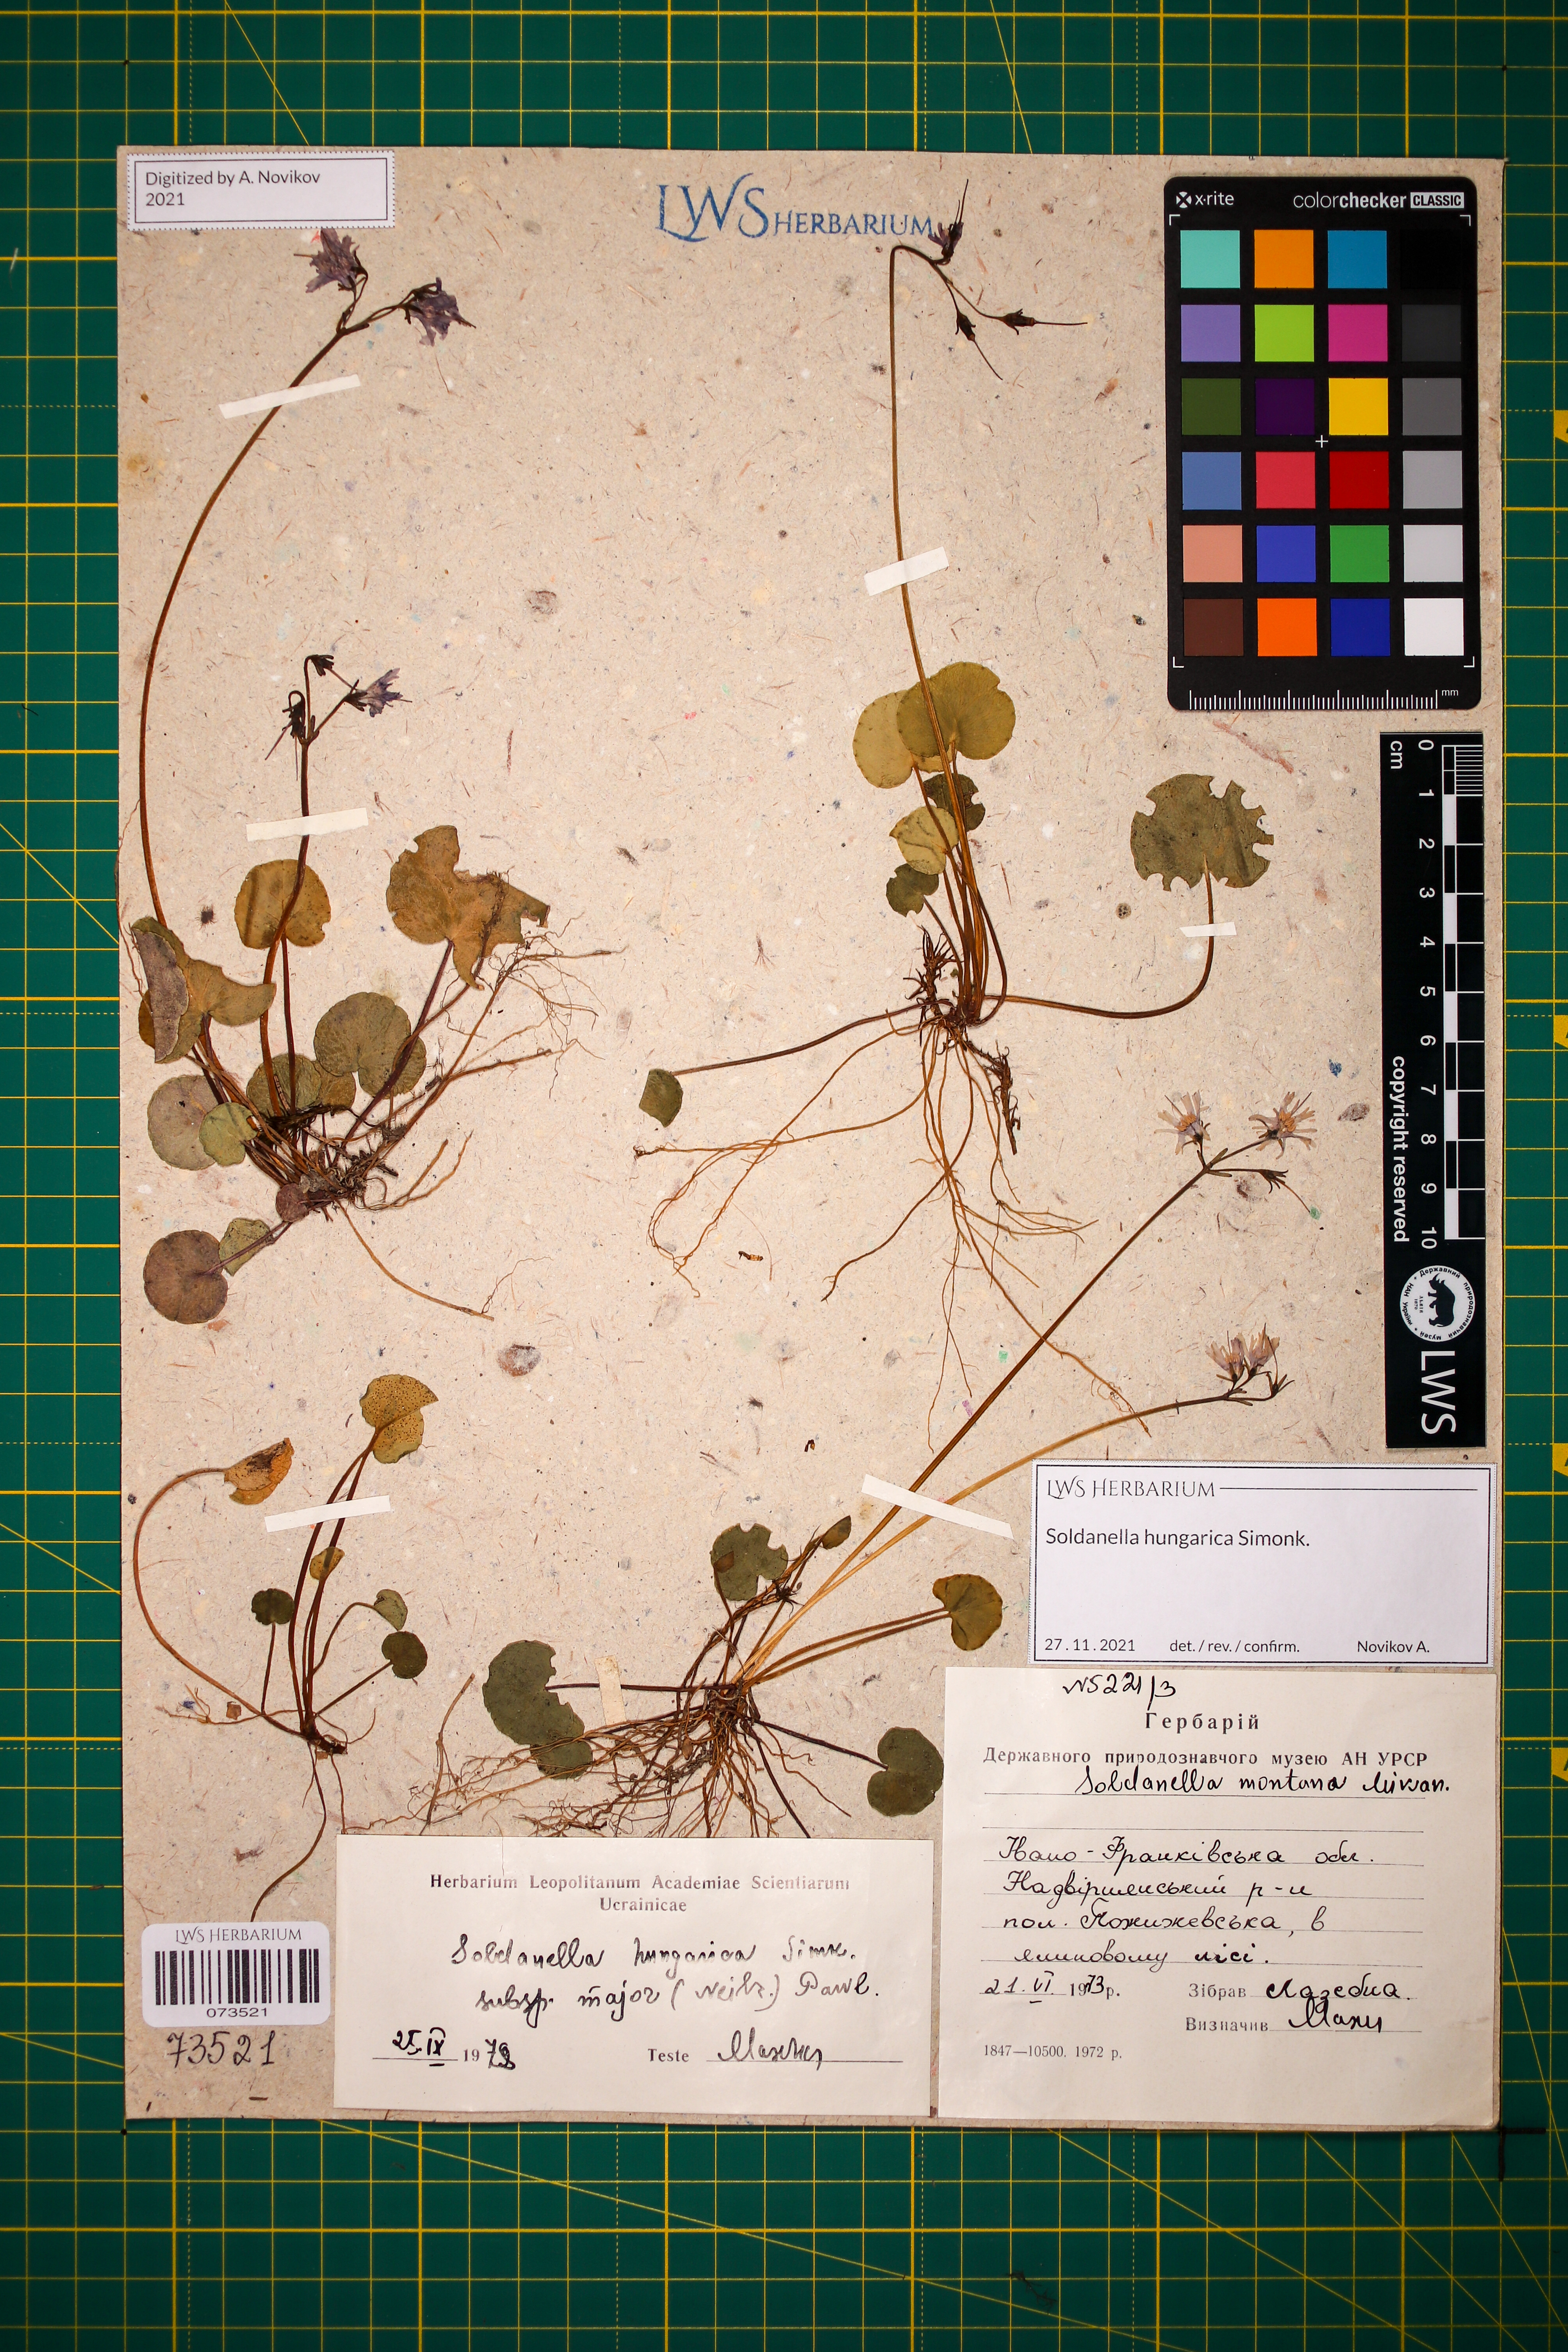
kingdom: Plantae
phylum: Tracheophyta
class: Magnoliopsida
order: Ericales
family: Primulaceae
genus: Soldanella
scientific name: Soldanella hungarica
